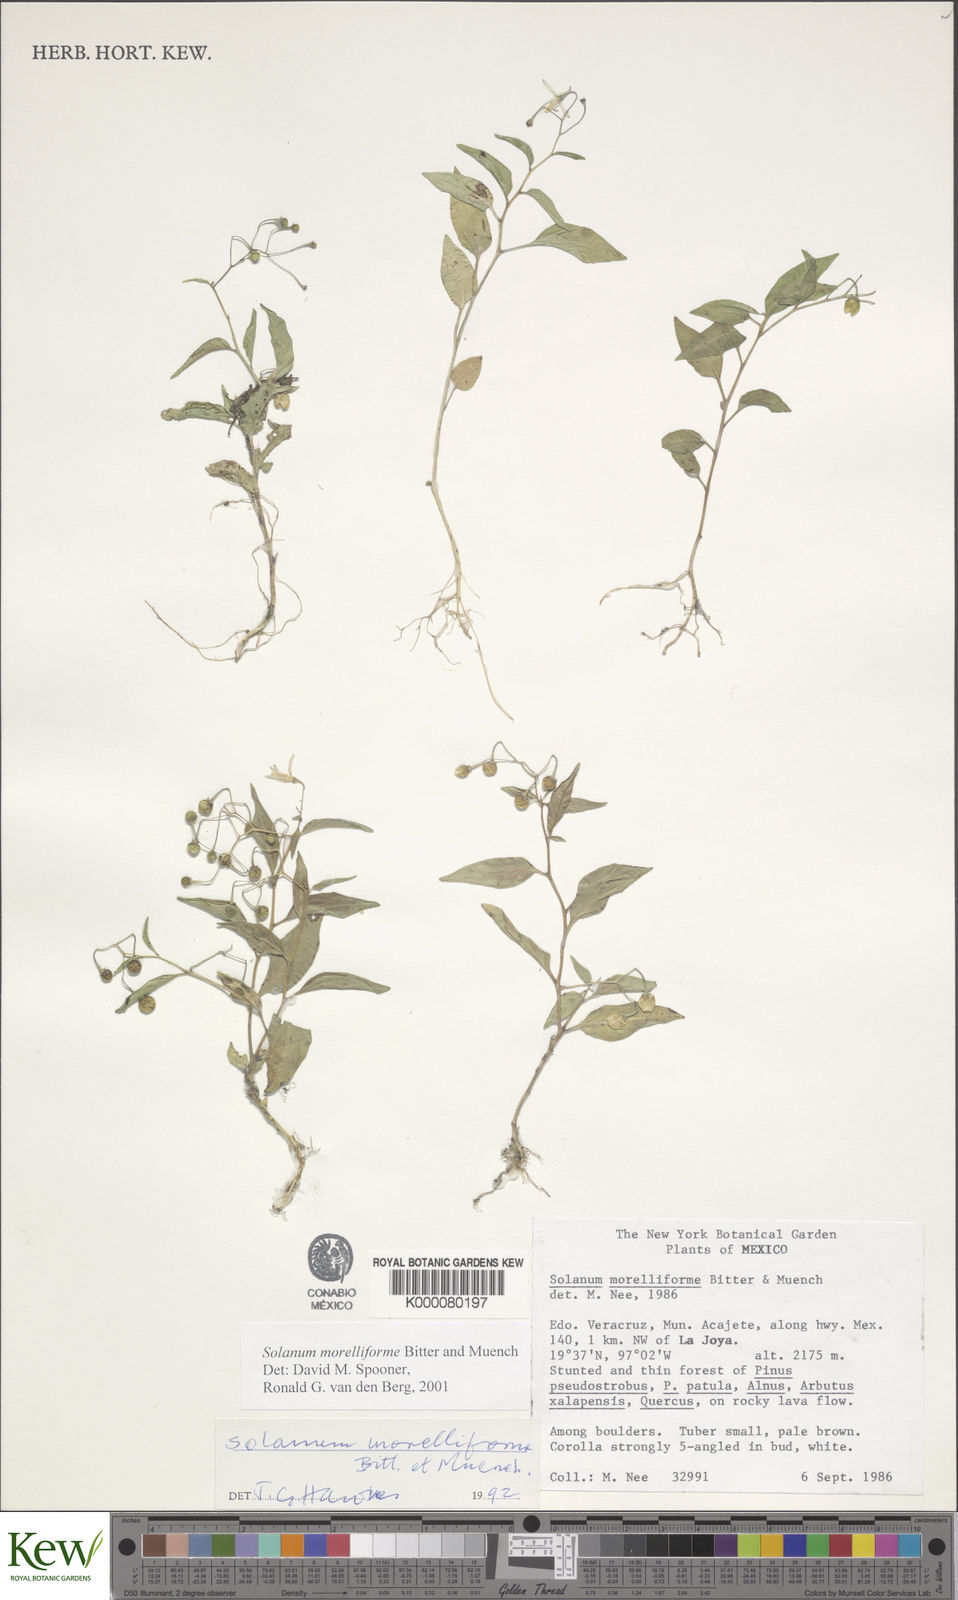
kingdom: Plantae
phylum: Tracheophyta
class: Magnoliopsida
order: Solanales
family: Solanaceae
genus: Solanum
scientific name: Solanum morelliforme
